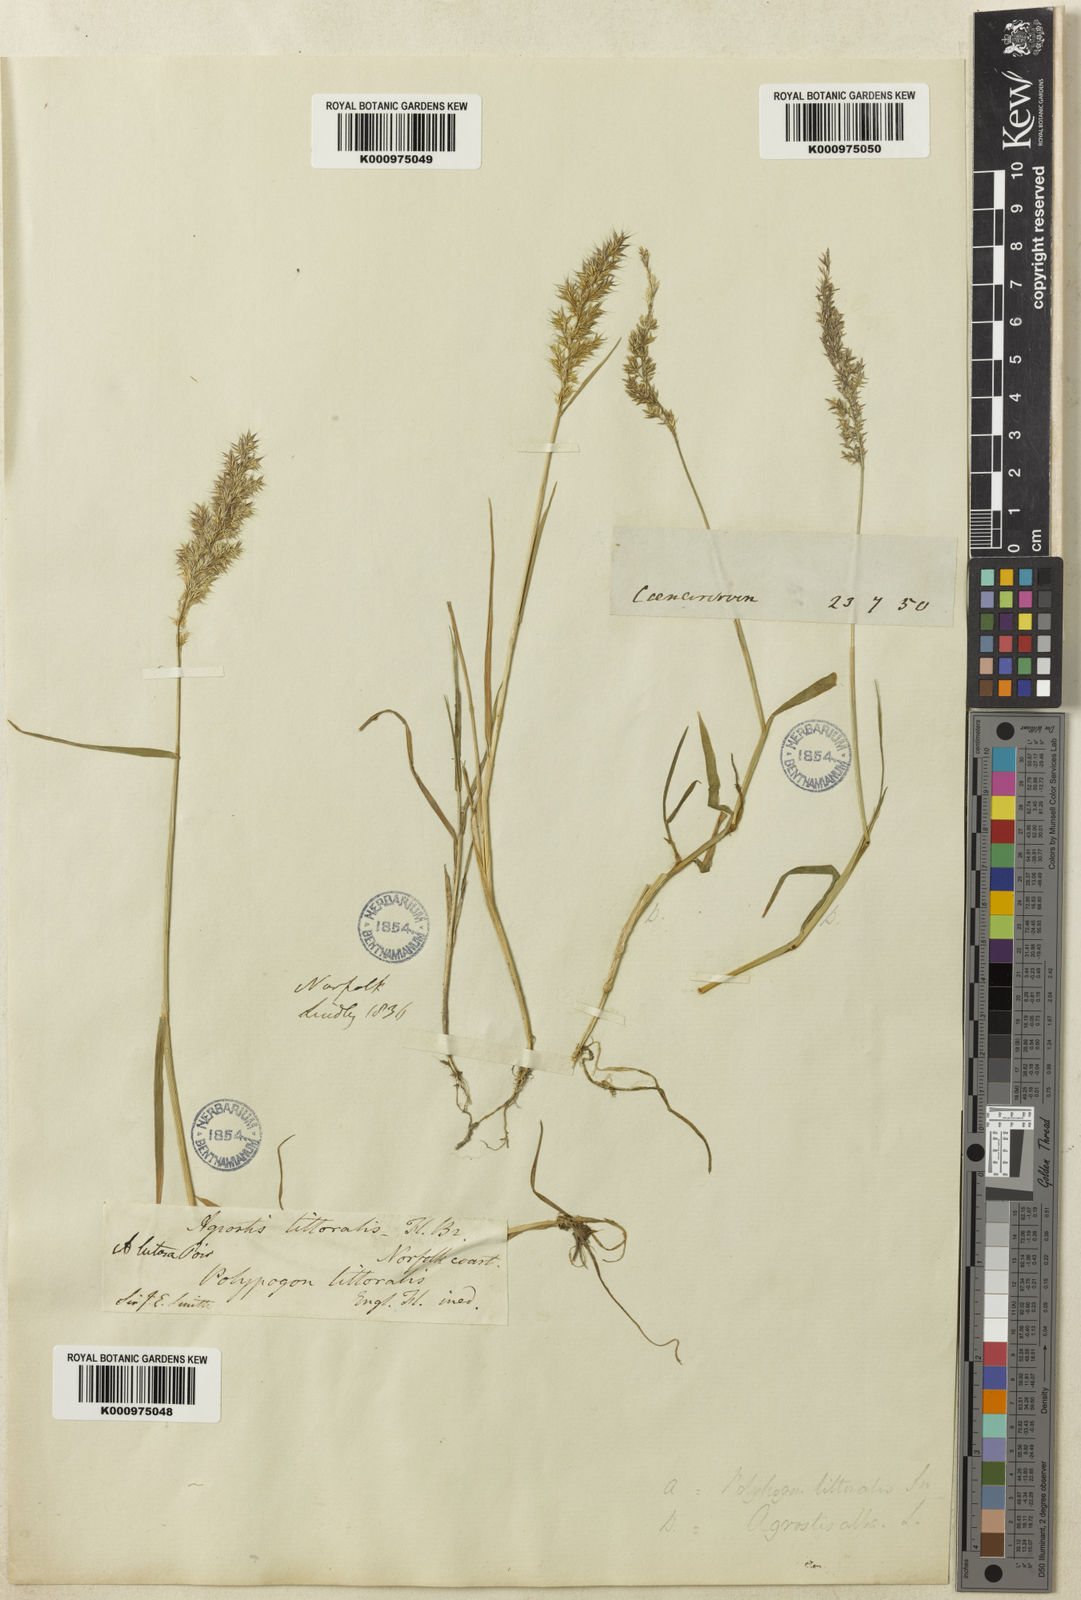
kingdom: Plantae
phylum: Tracheophyta
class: Liliopsida
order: Poales
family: Poaceae
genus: Agropogon
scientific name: Agropogon lutosus
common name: Coast agropogon
